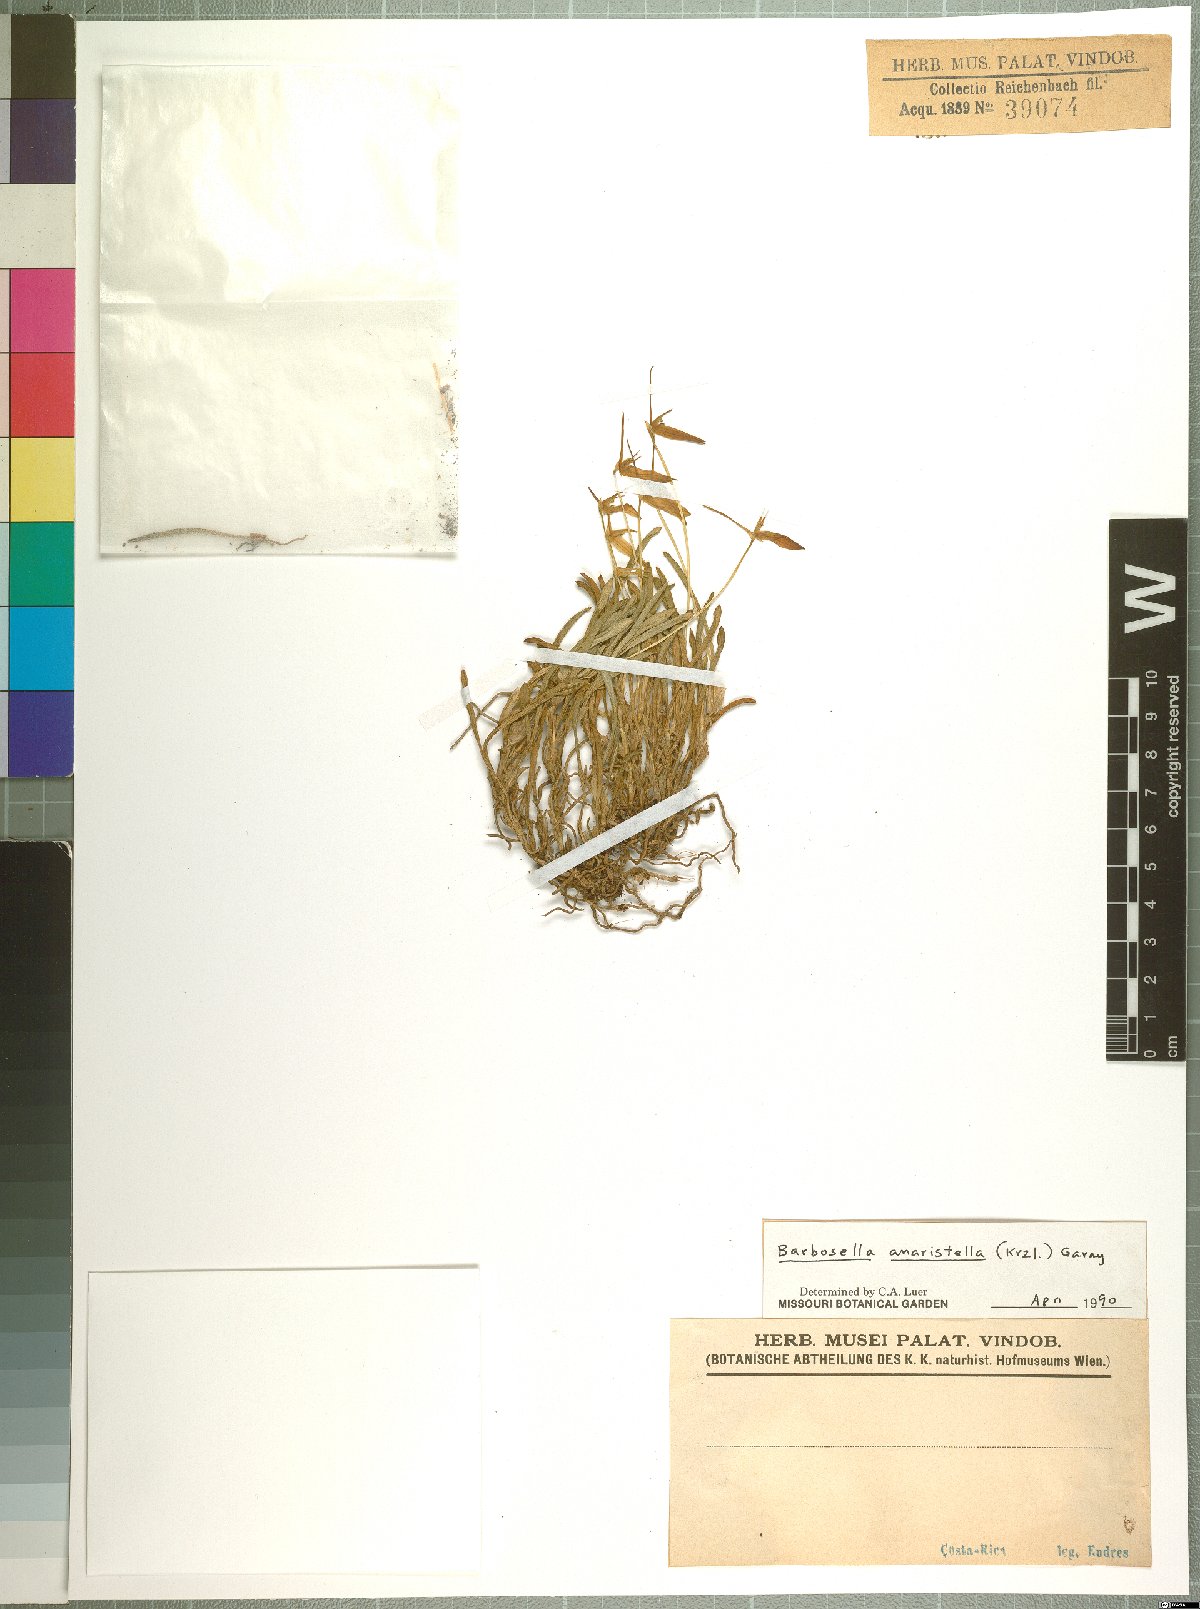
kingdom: Plantae
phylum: Tracheophyta
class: Liliopsida
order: Asparagales
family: Orchidaceae
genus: Barbosella
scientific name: Barbosella dolichorhiza
